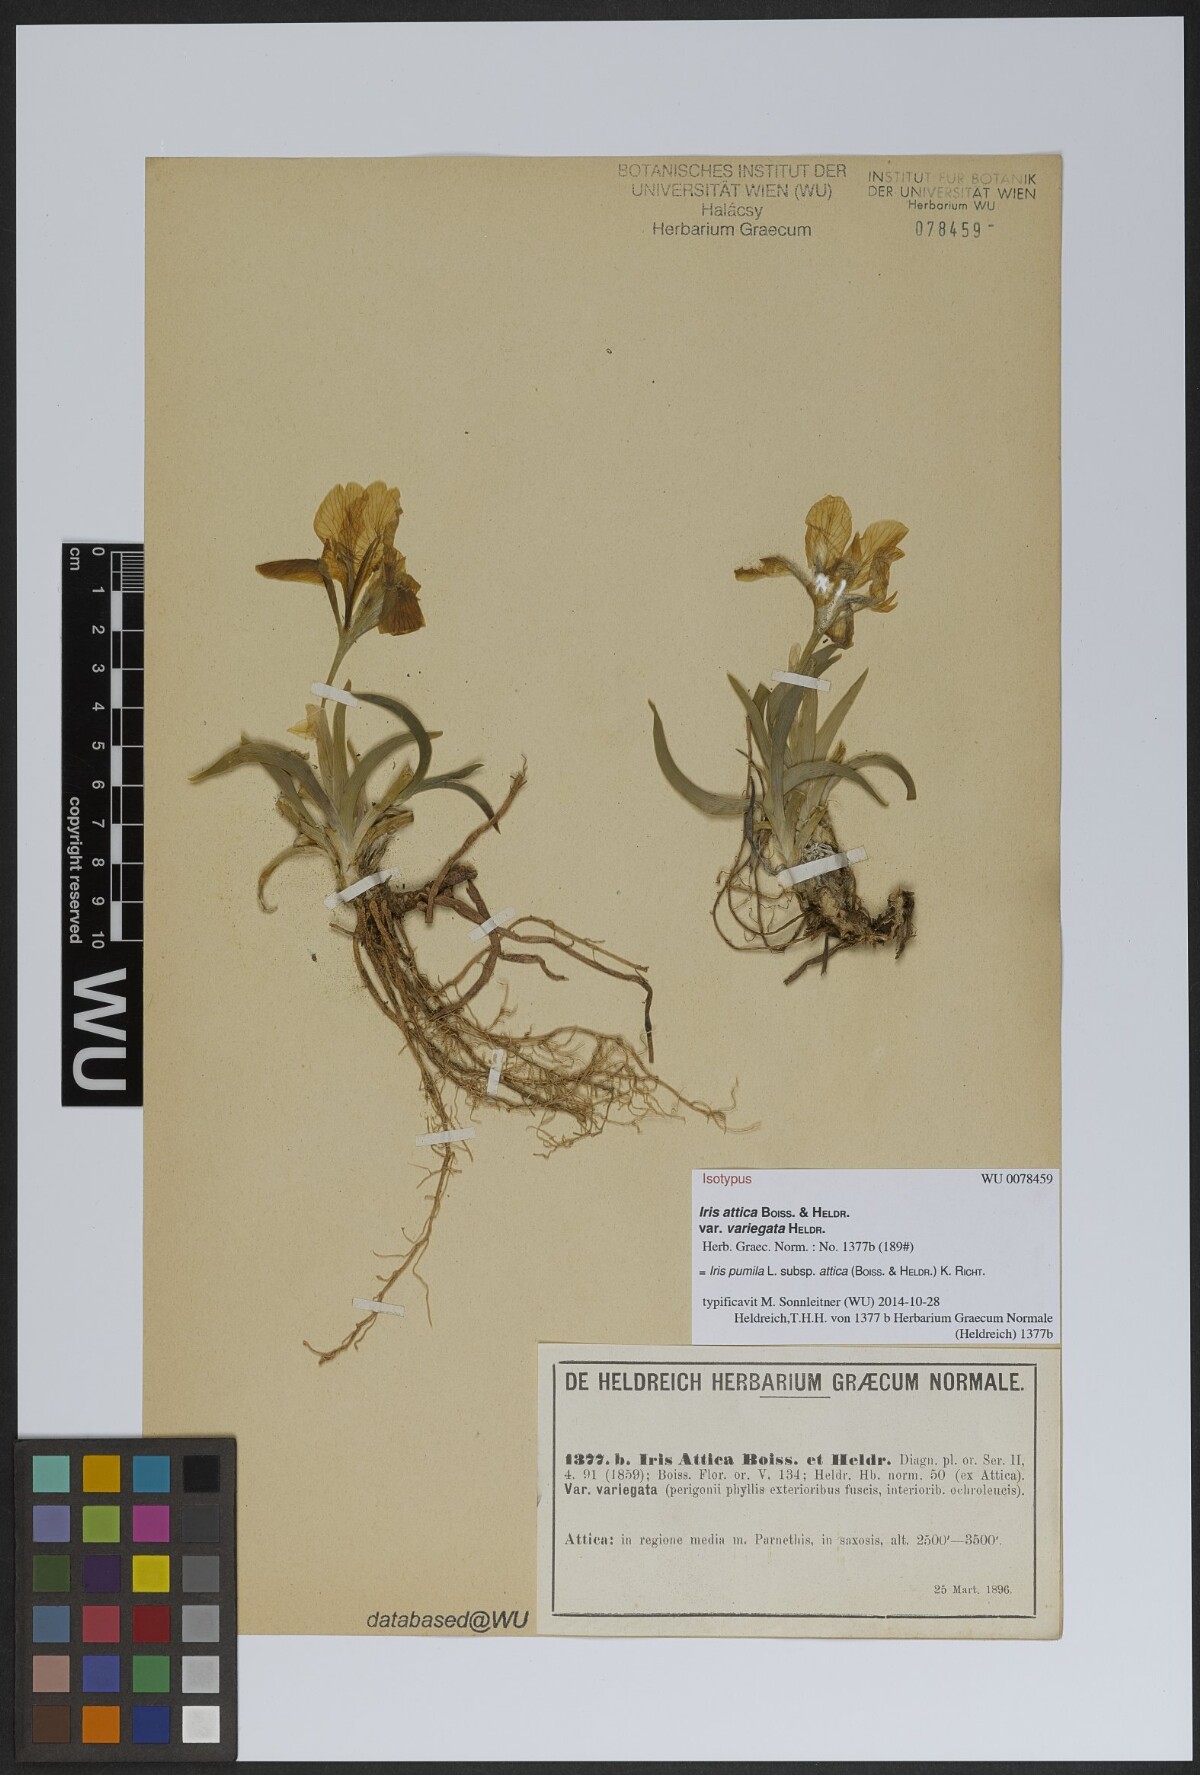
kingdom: Plantae
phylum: Tracheophyta
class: Liliopsida
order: Asparagales
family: Iridaceae
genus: Iris
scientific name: Iris pumila
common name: Dwarf iris
